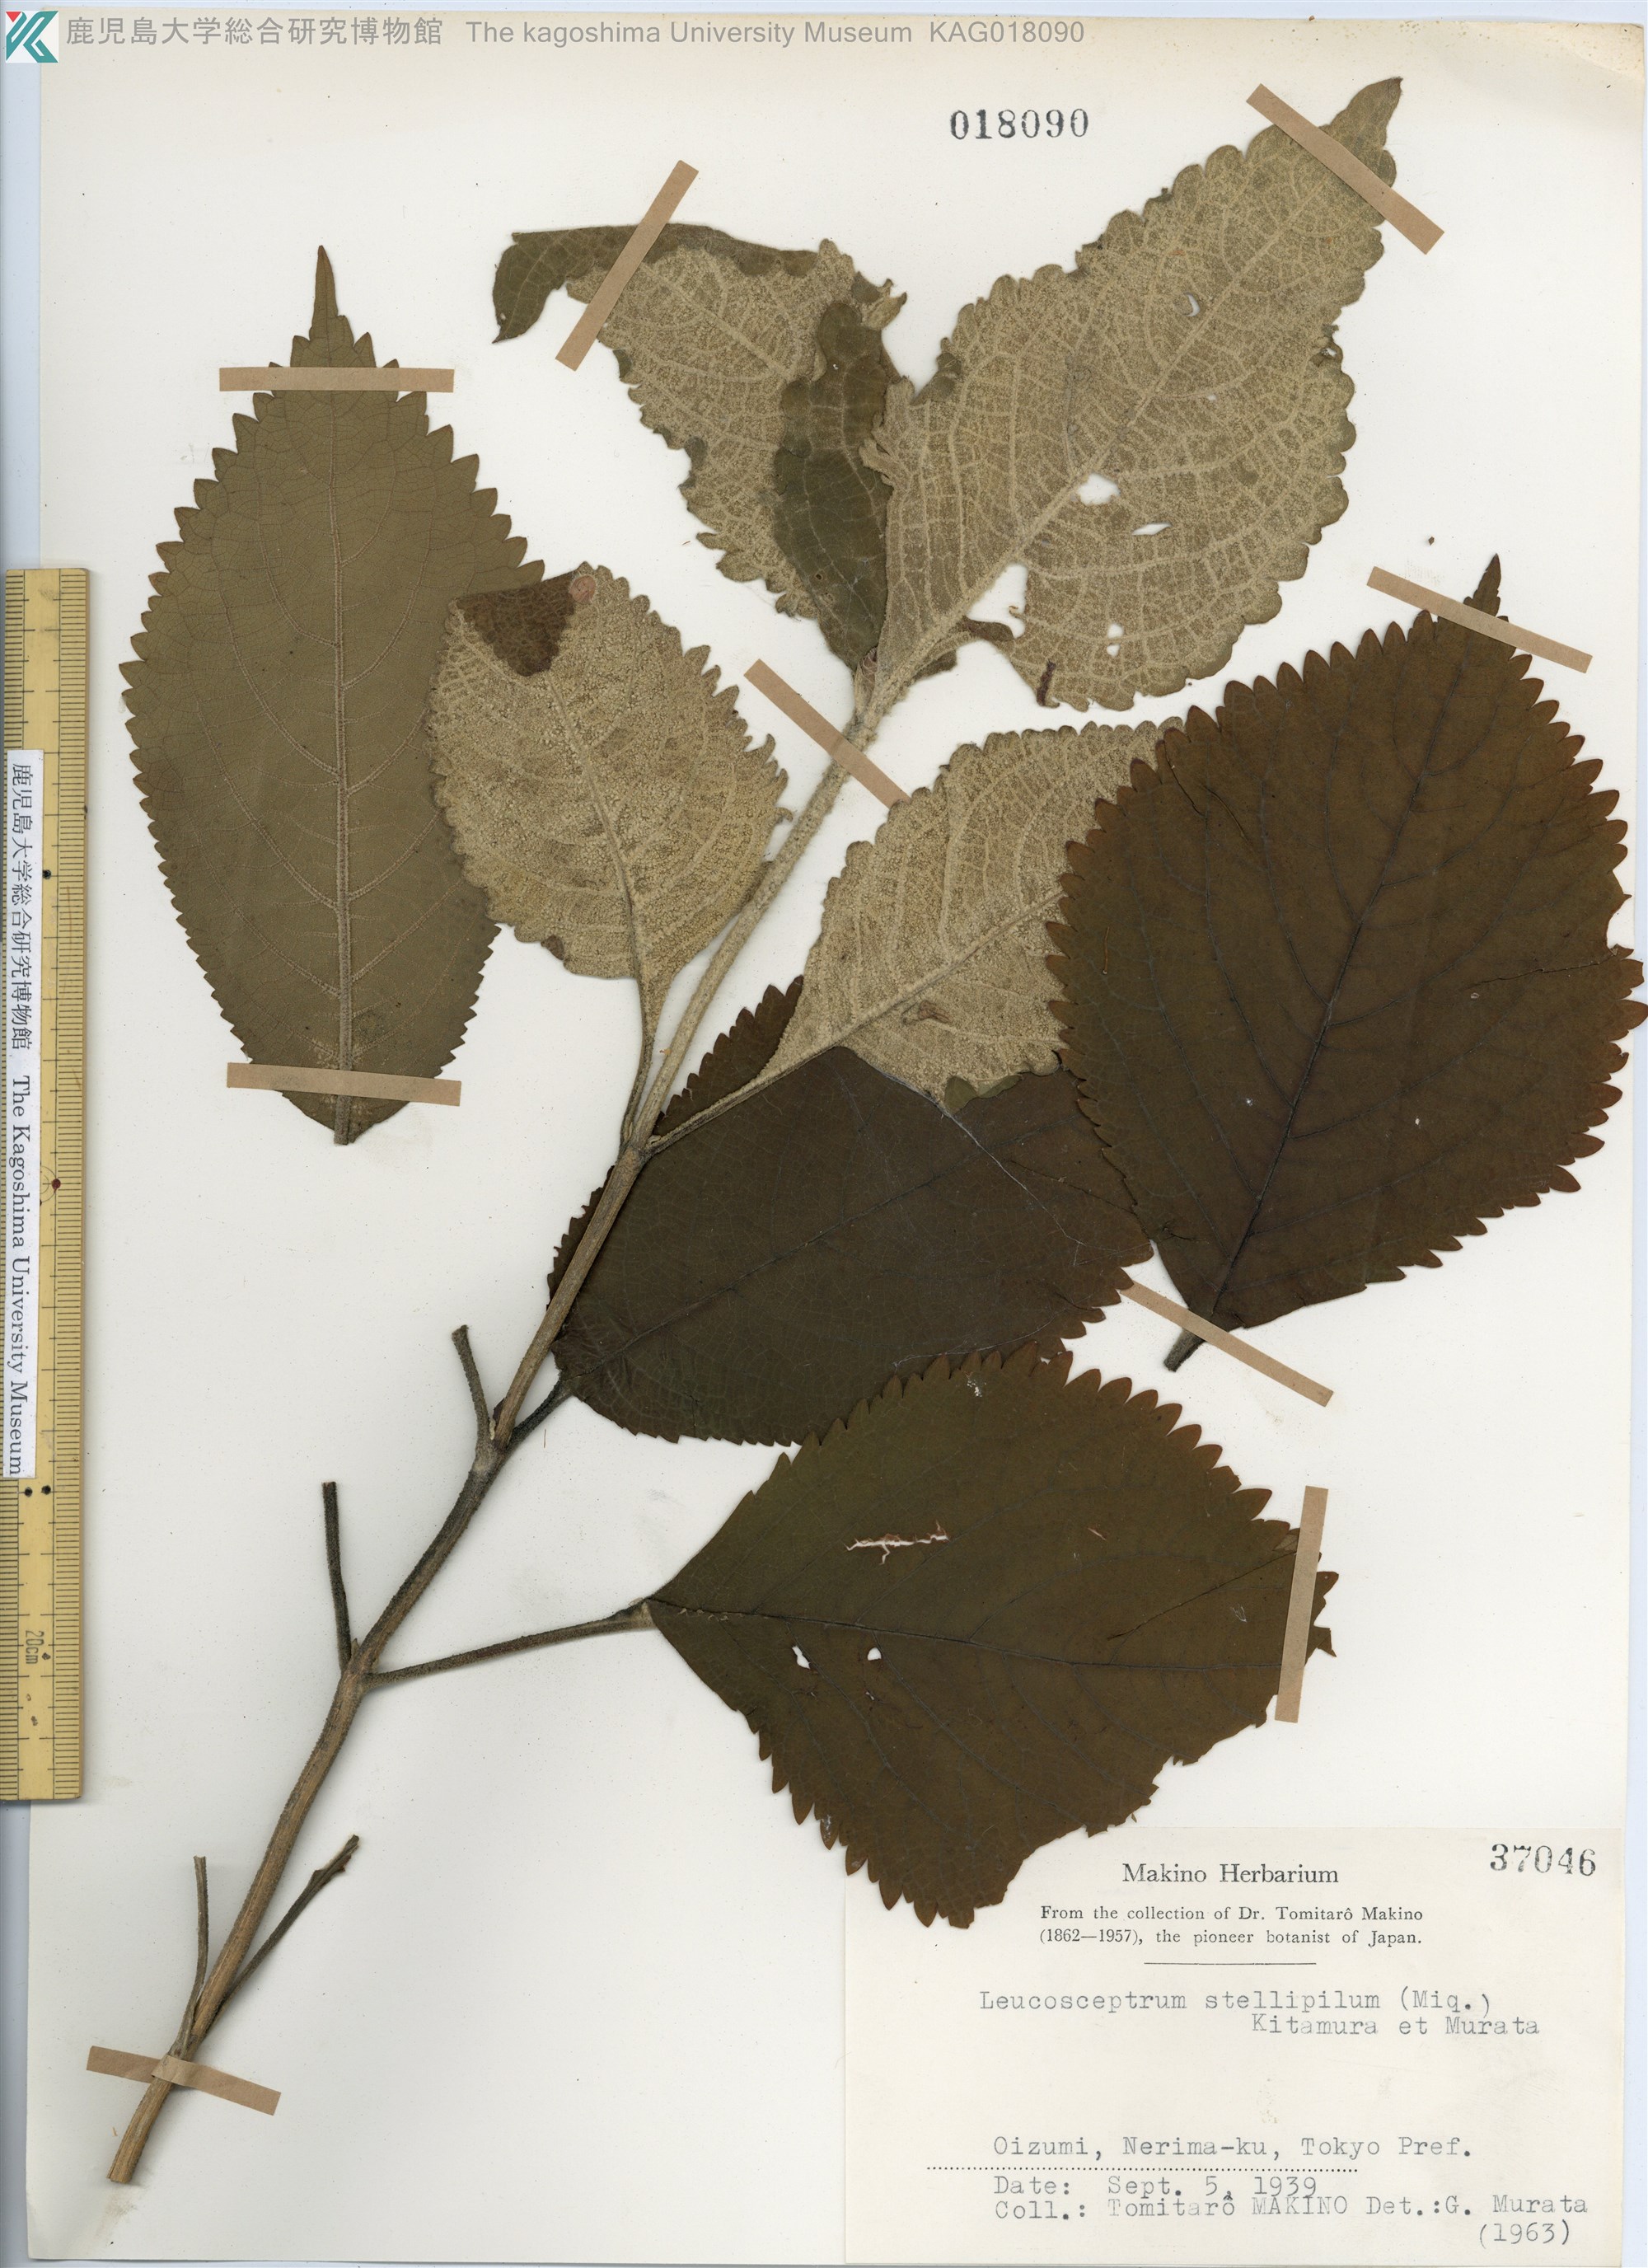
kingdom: Plantae
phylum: Tracheophyta
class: Magnoliopsida
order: Lamiales
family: Lamiaceae
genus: Comanthosphace
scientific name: Comanthosphace stellipila
